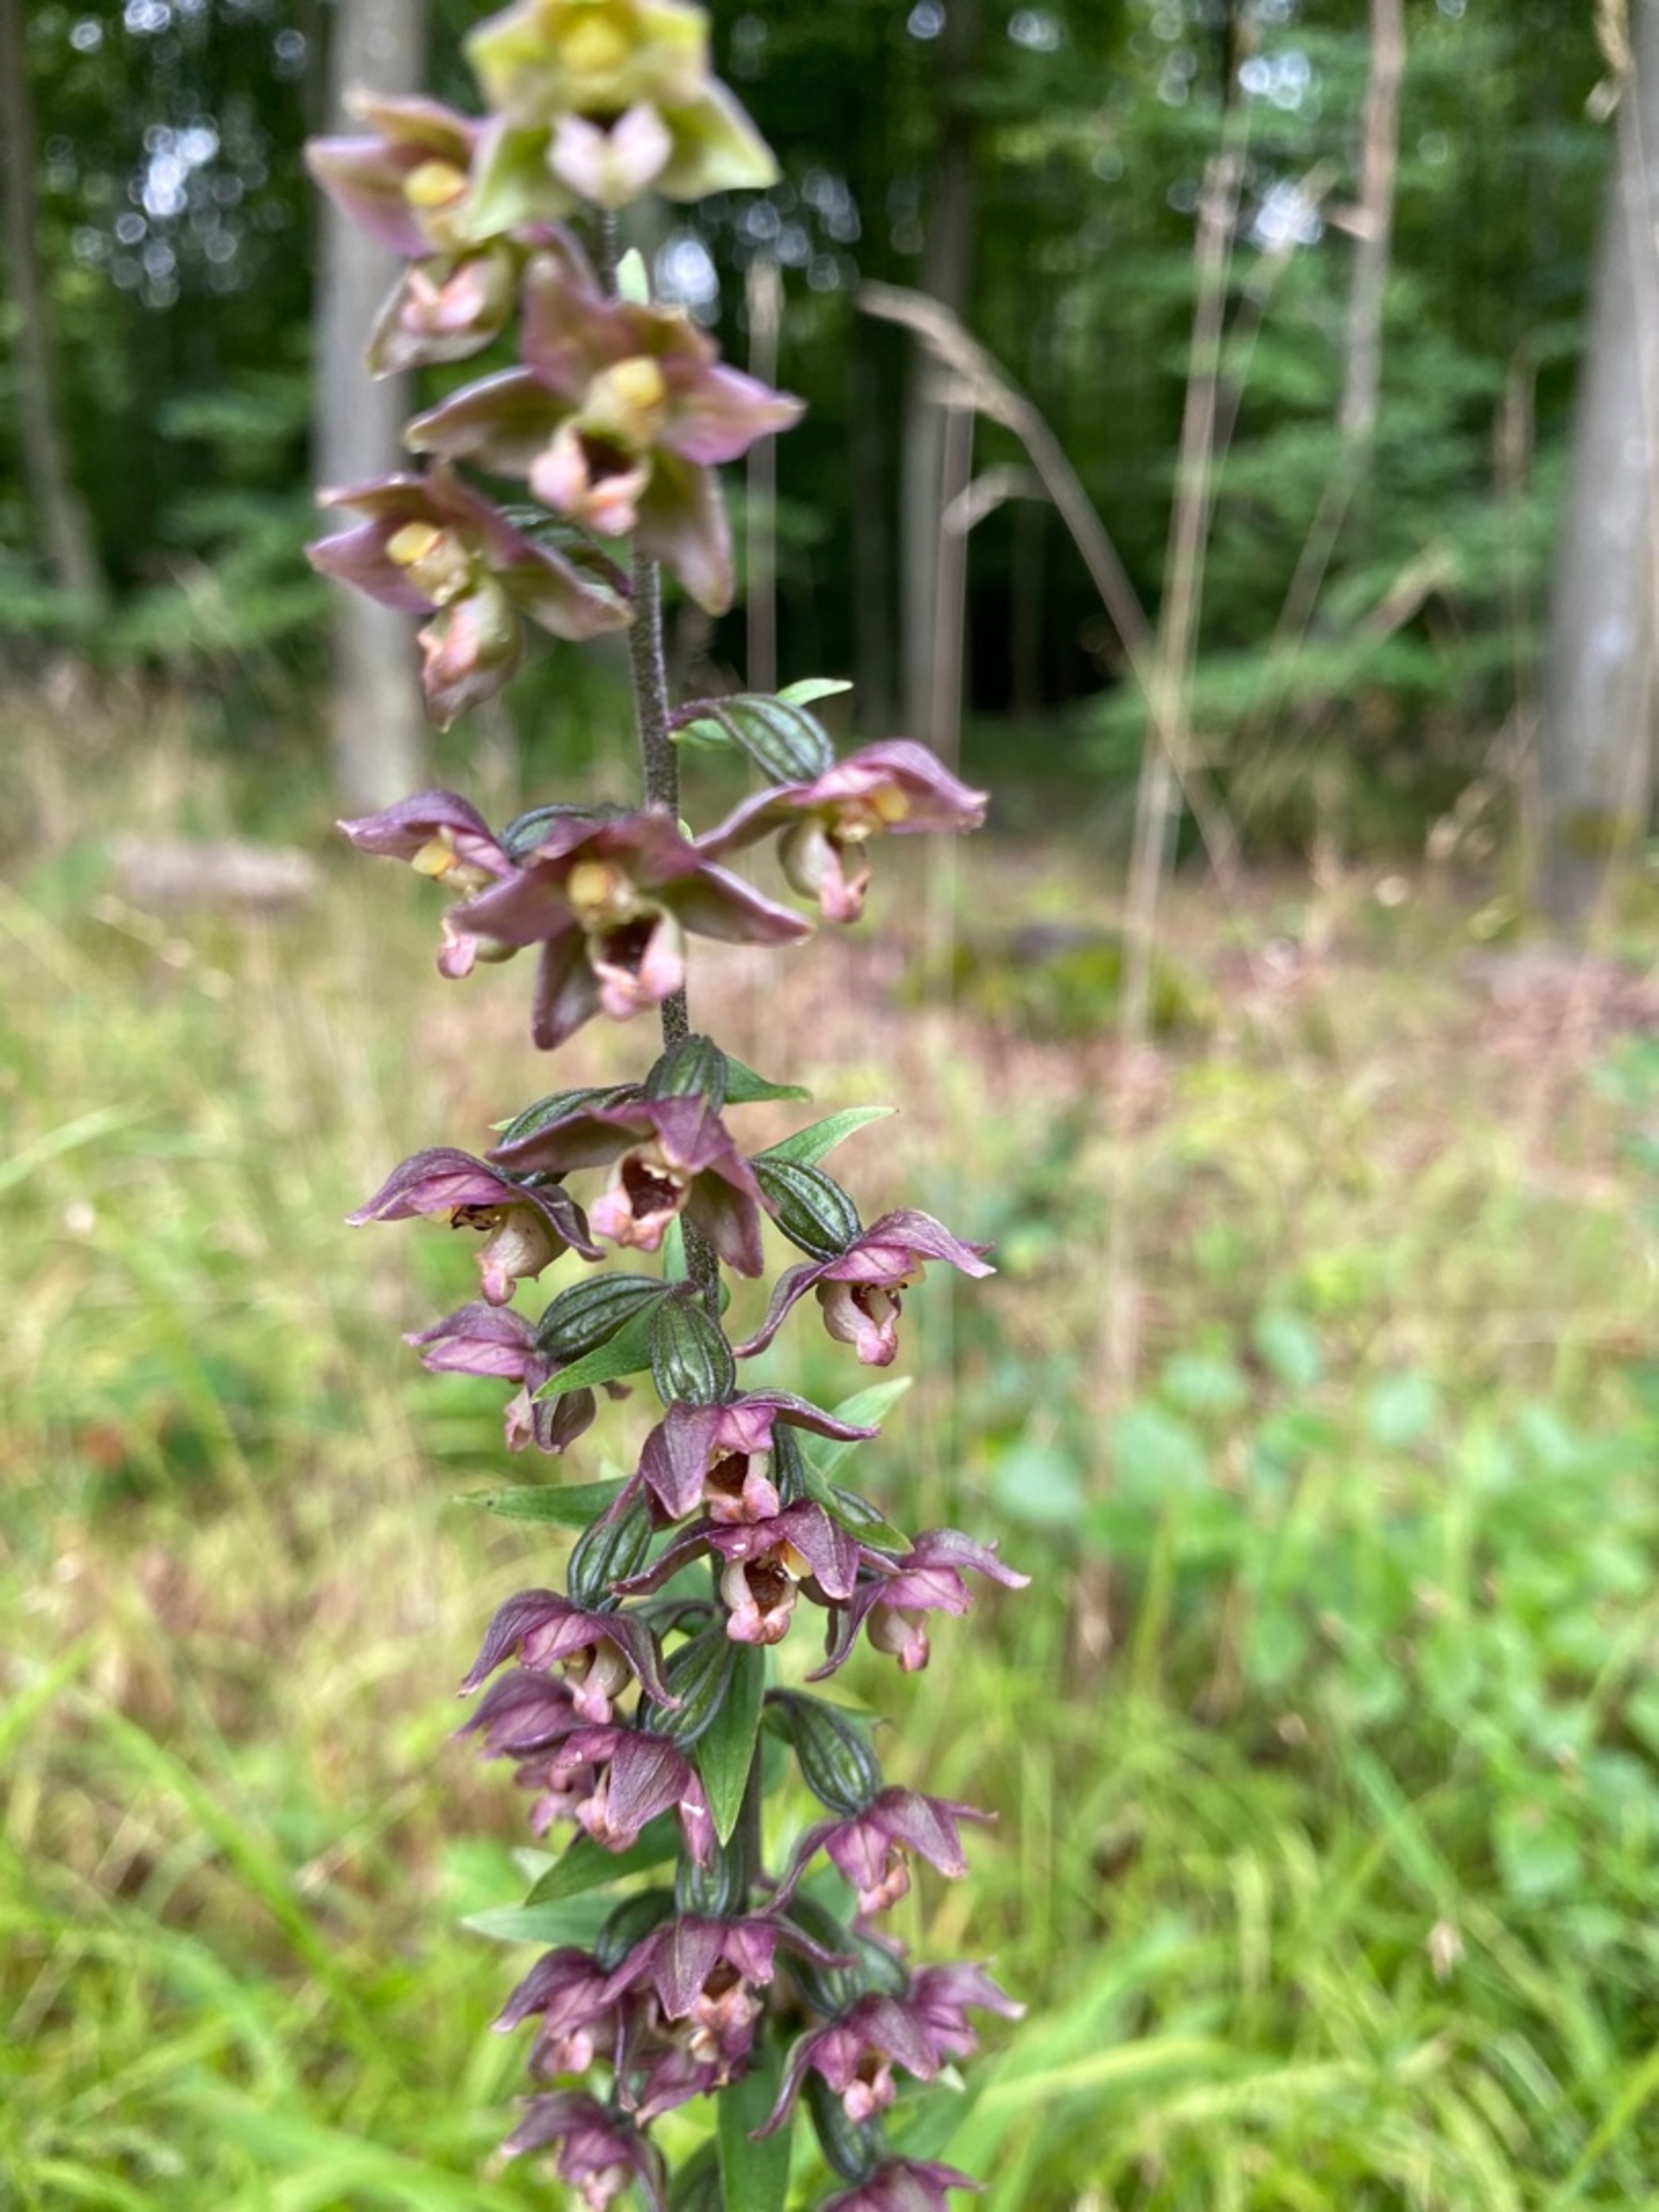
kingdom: Plantae
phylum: Tracheophyta
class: Liliopsida
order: Asparagales
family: Orchidaceae
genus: Epipactis
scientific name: Epipactis helleborine
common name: Skov-hullæbe
